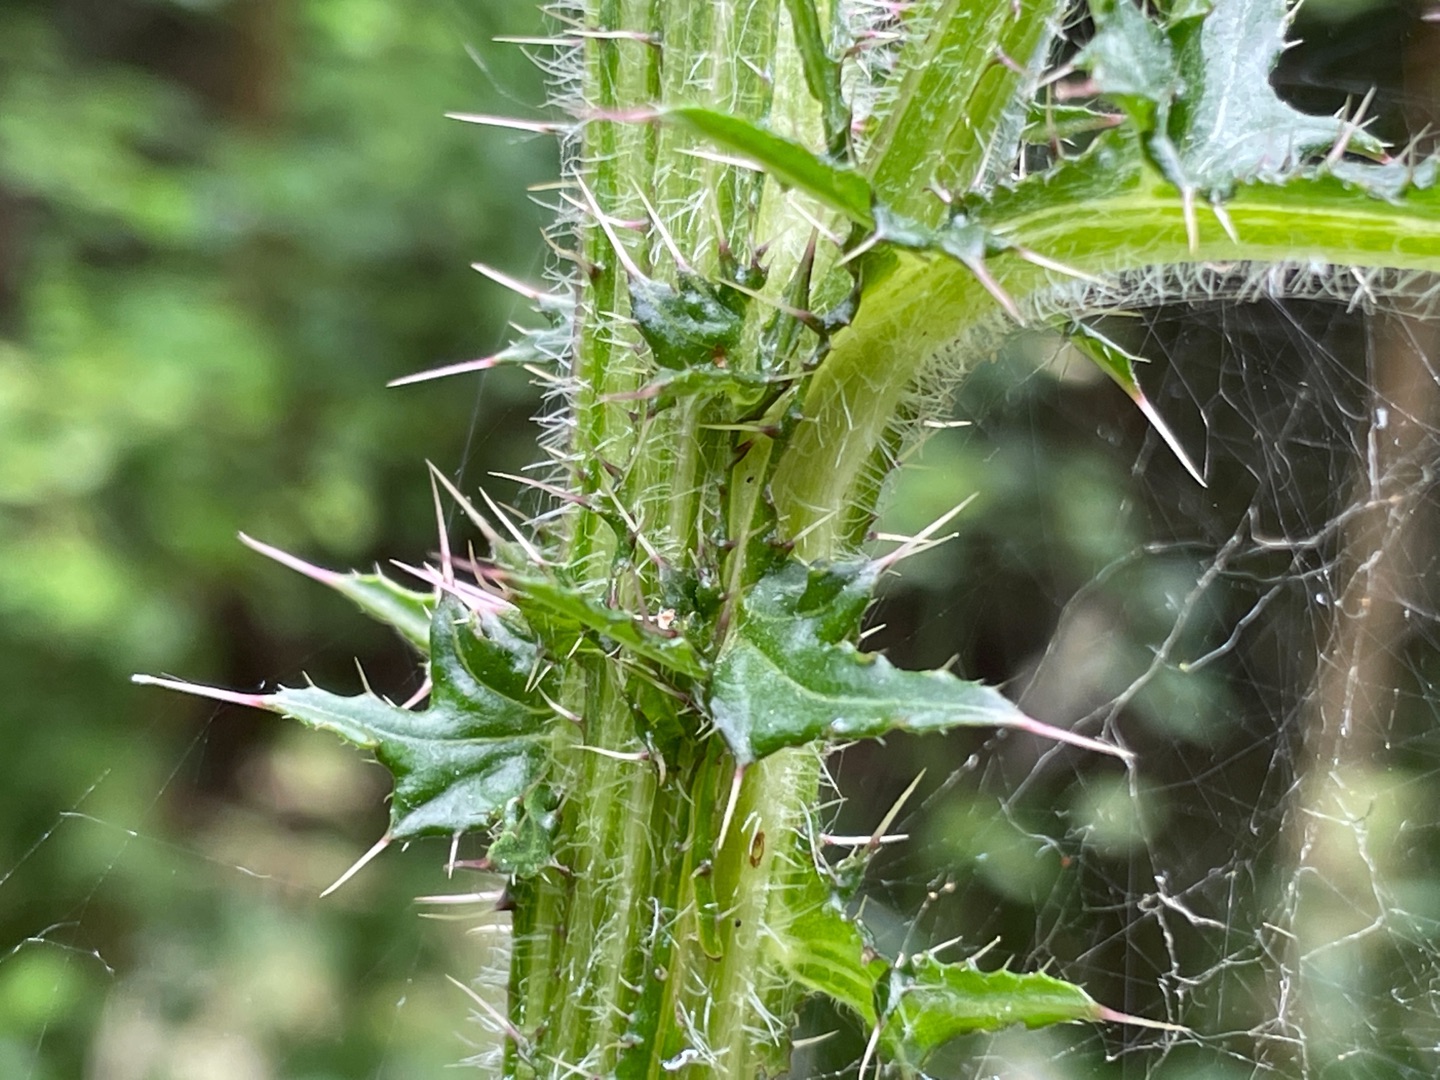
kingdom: Plantae
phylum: Tracheophyta
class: Magnoliopsida
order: Asterales
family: Asteraceae
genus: Cirsium
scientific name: Cirsium palustre
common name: Kær-tidsel
